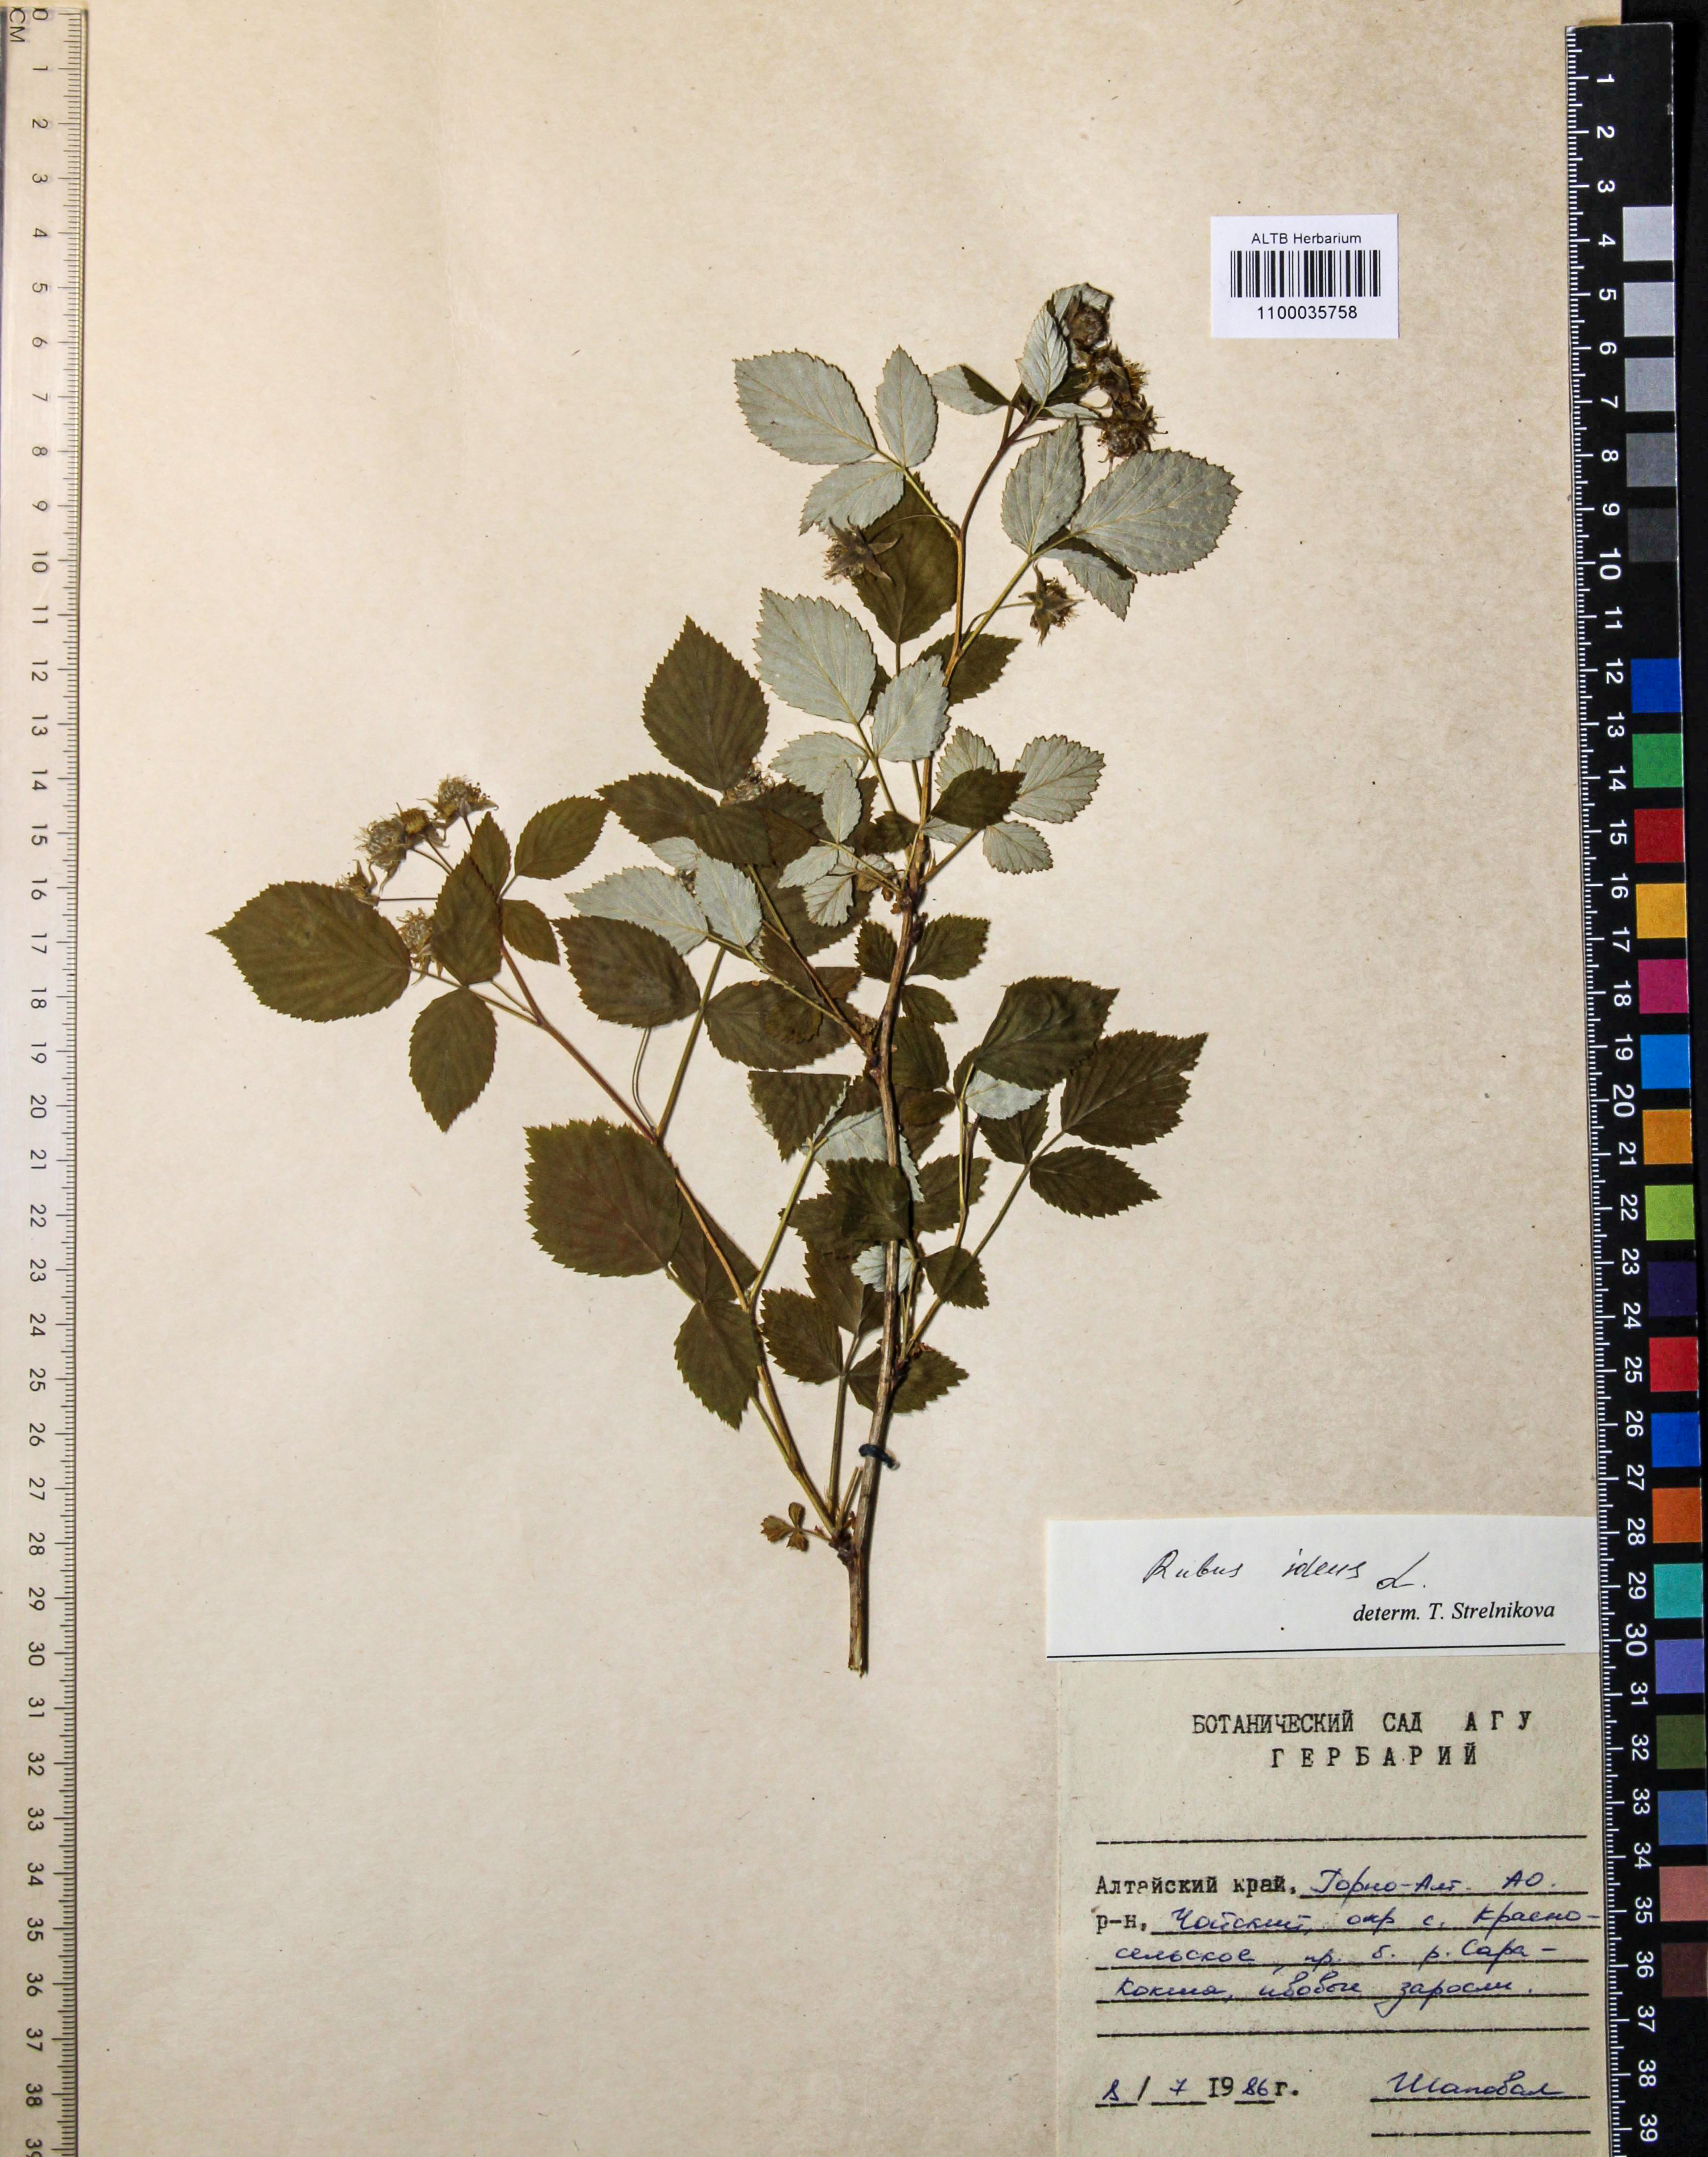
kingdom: Plantae
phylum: Tracheophyta
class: Magnoliopsida
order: Rosales
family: Rosaceae
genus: Rubus
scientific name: Rubus idaeus
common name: Raspberry
